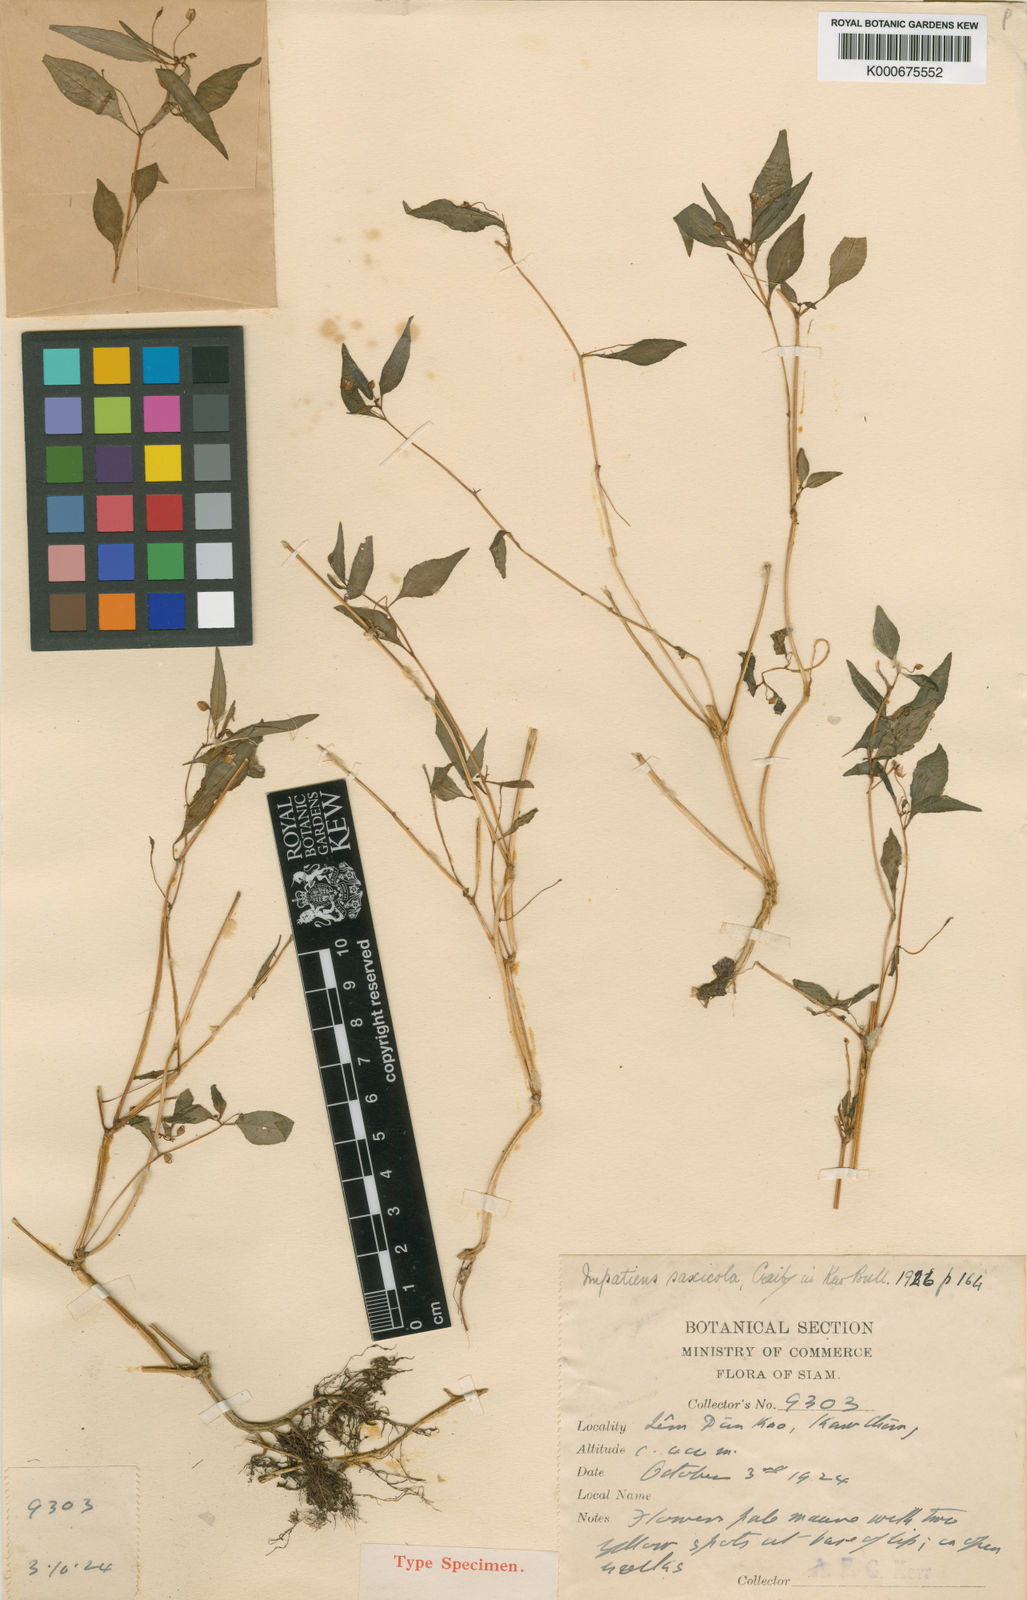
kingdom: Plantae
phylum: Tracheophyta
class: Magnoliopsida
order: Ericales
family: Balsaminaceae
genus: Impatiens
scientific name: Impatiens saxicola
